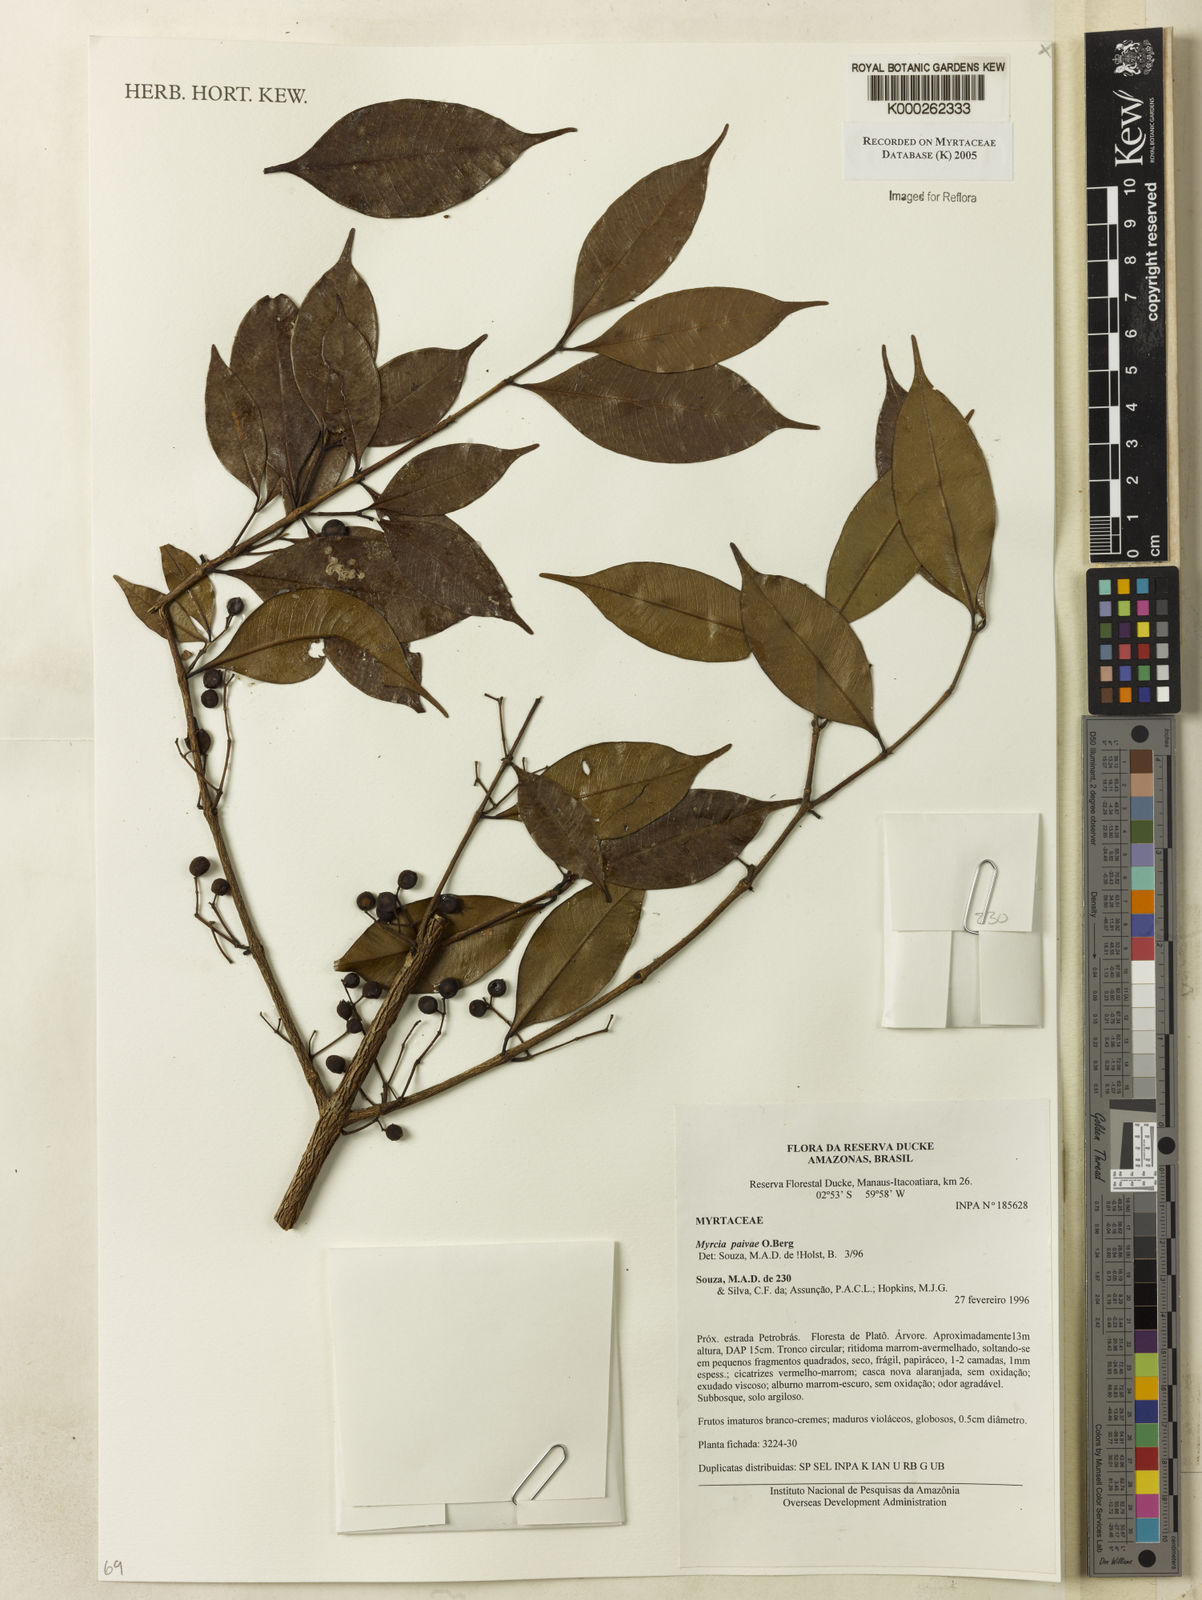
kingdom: Plantae
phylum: Tracheophyta
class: Magnoliopsida
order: Myrtales
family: Myrtaceae
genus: Myrcia
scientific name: Myrcia paivae
